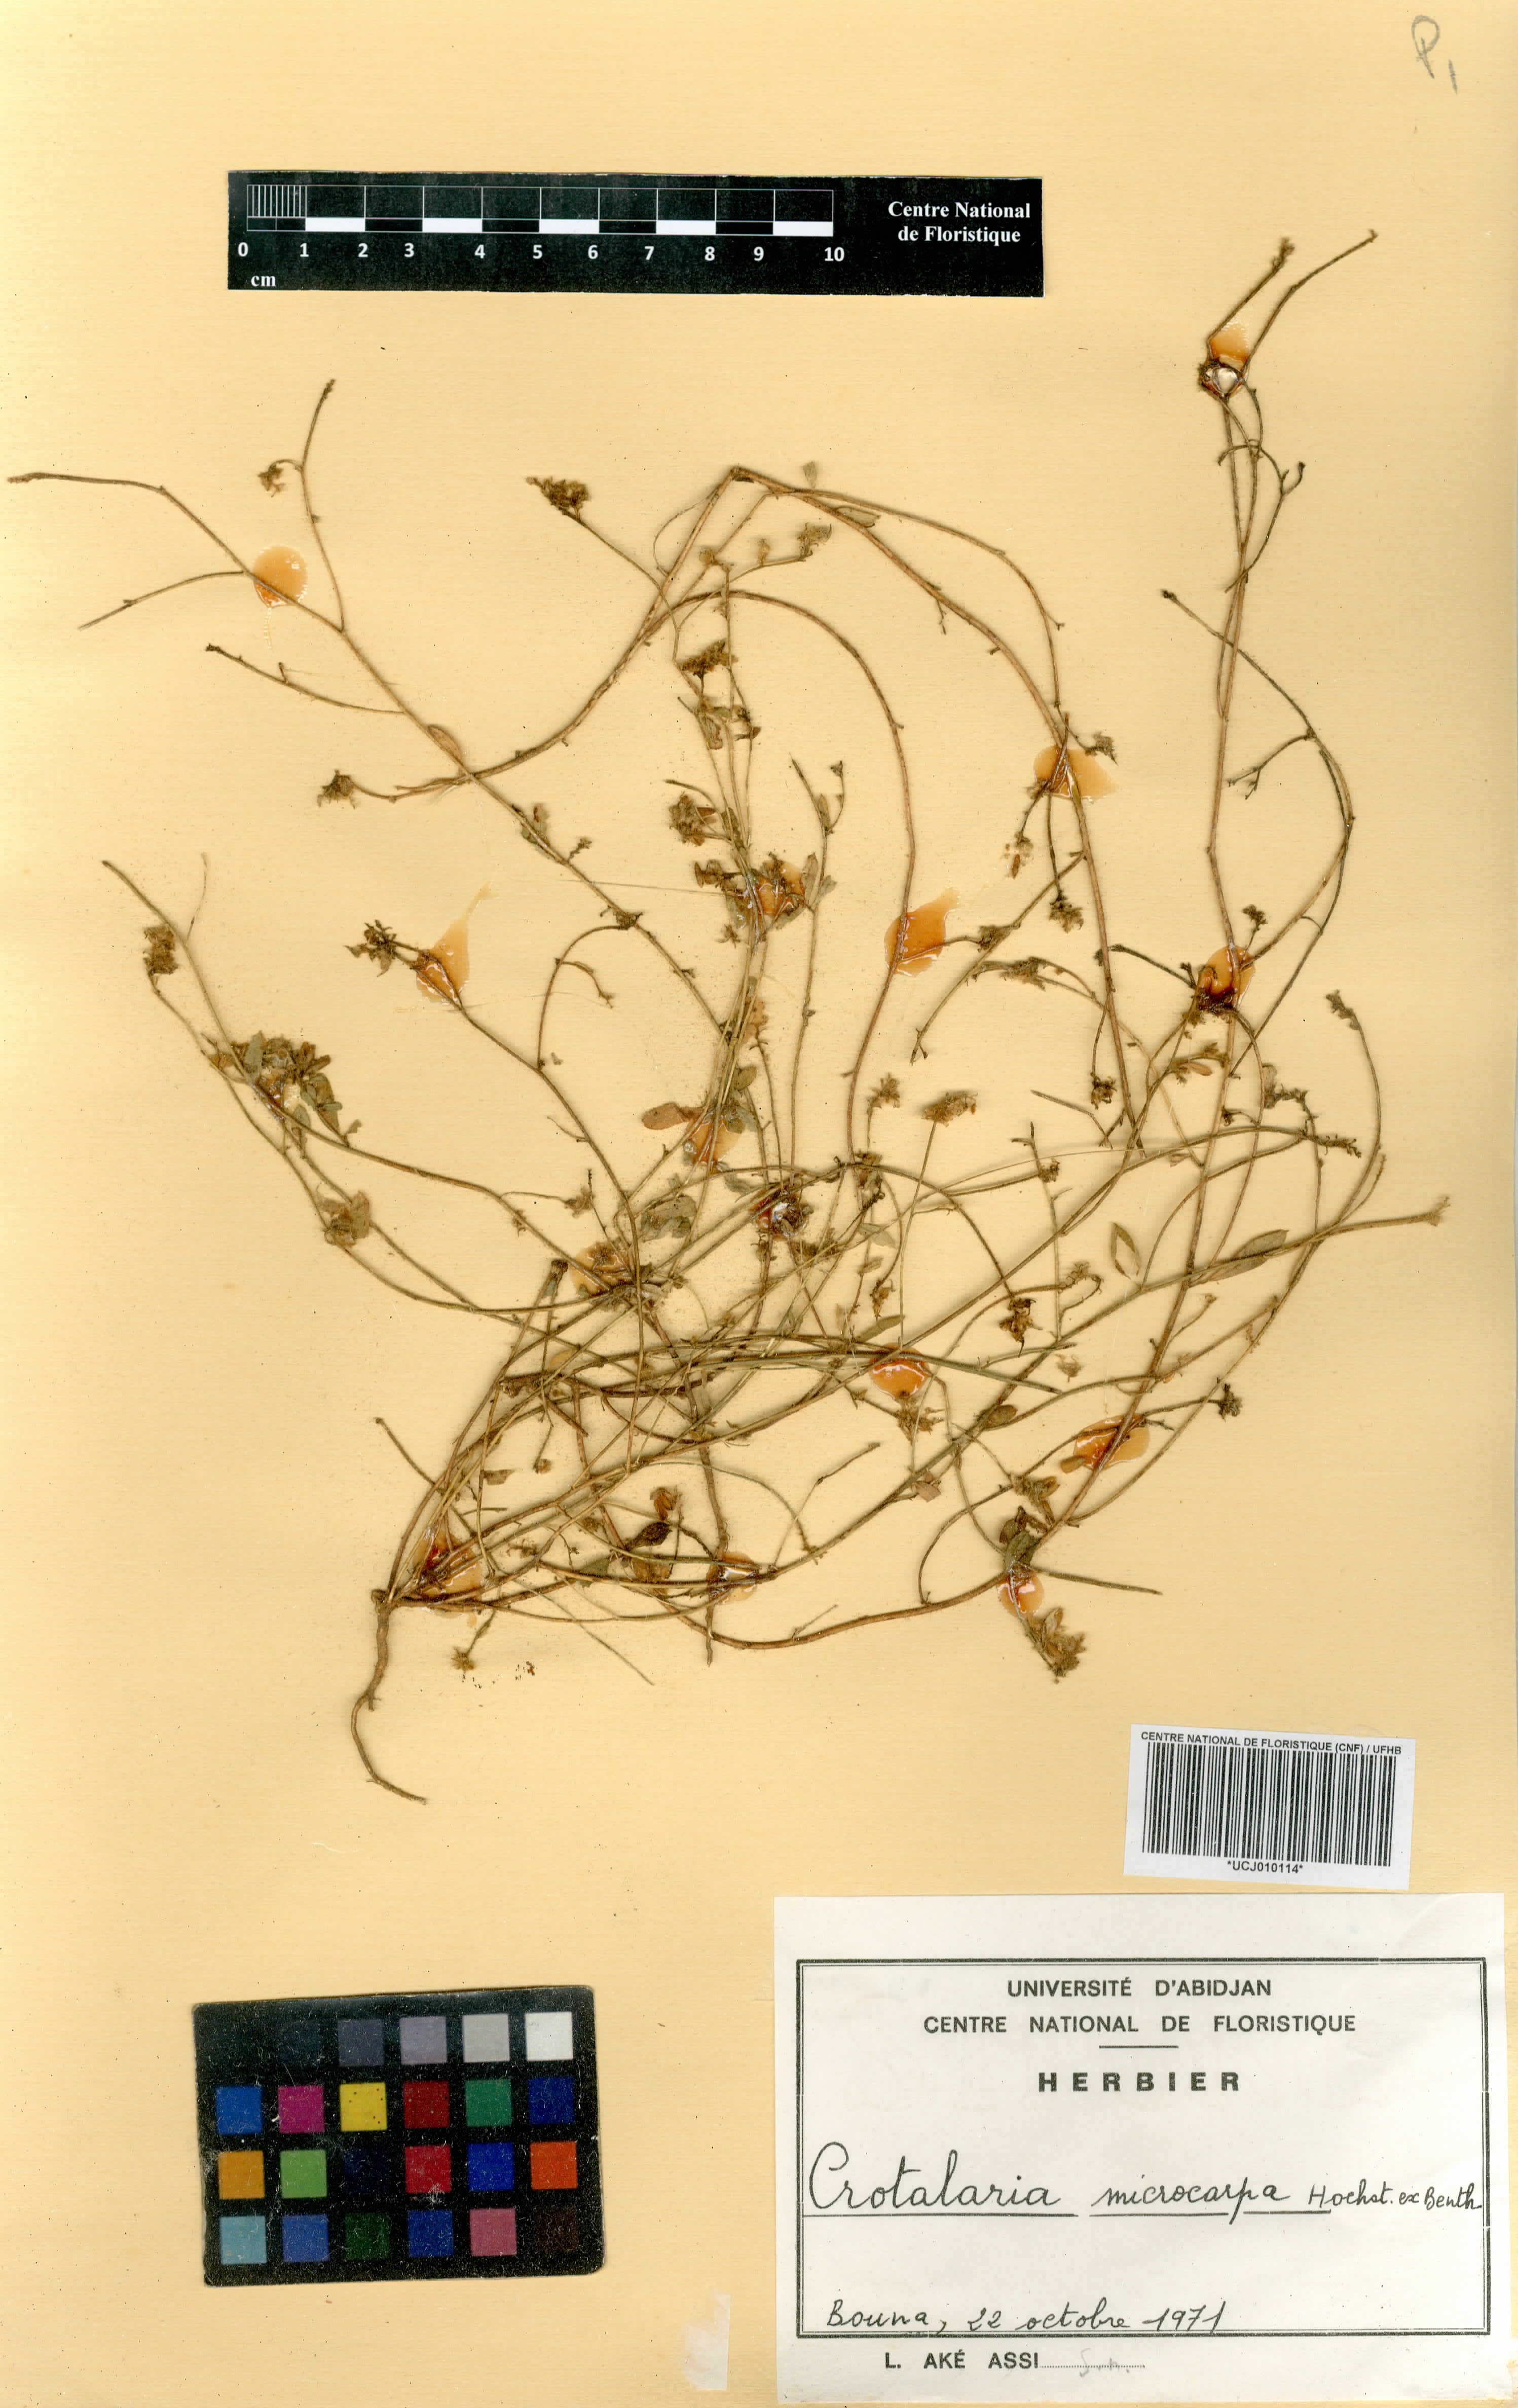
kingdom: Plantae
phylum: Tracheophyta
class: Magnoliopsida
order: Fabales
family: Fabaceae
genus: Crotalaria
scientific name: Crotalaria microcarpa
